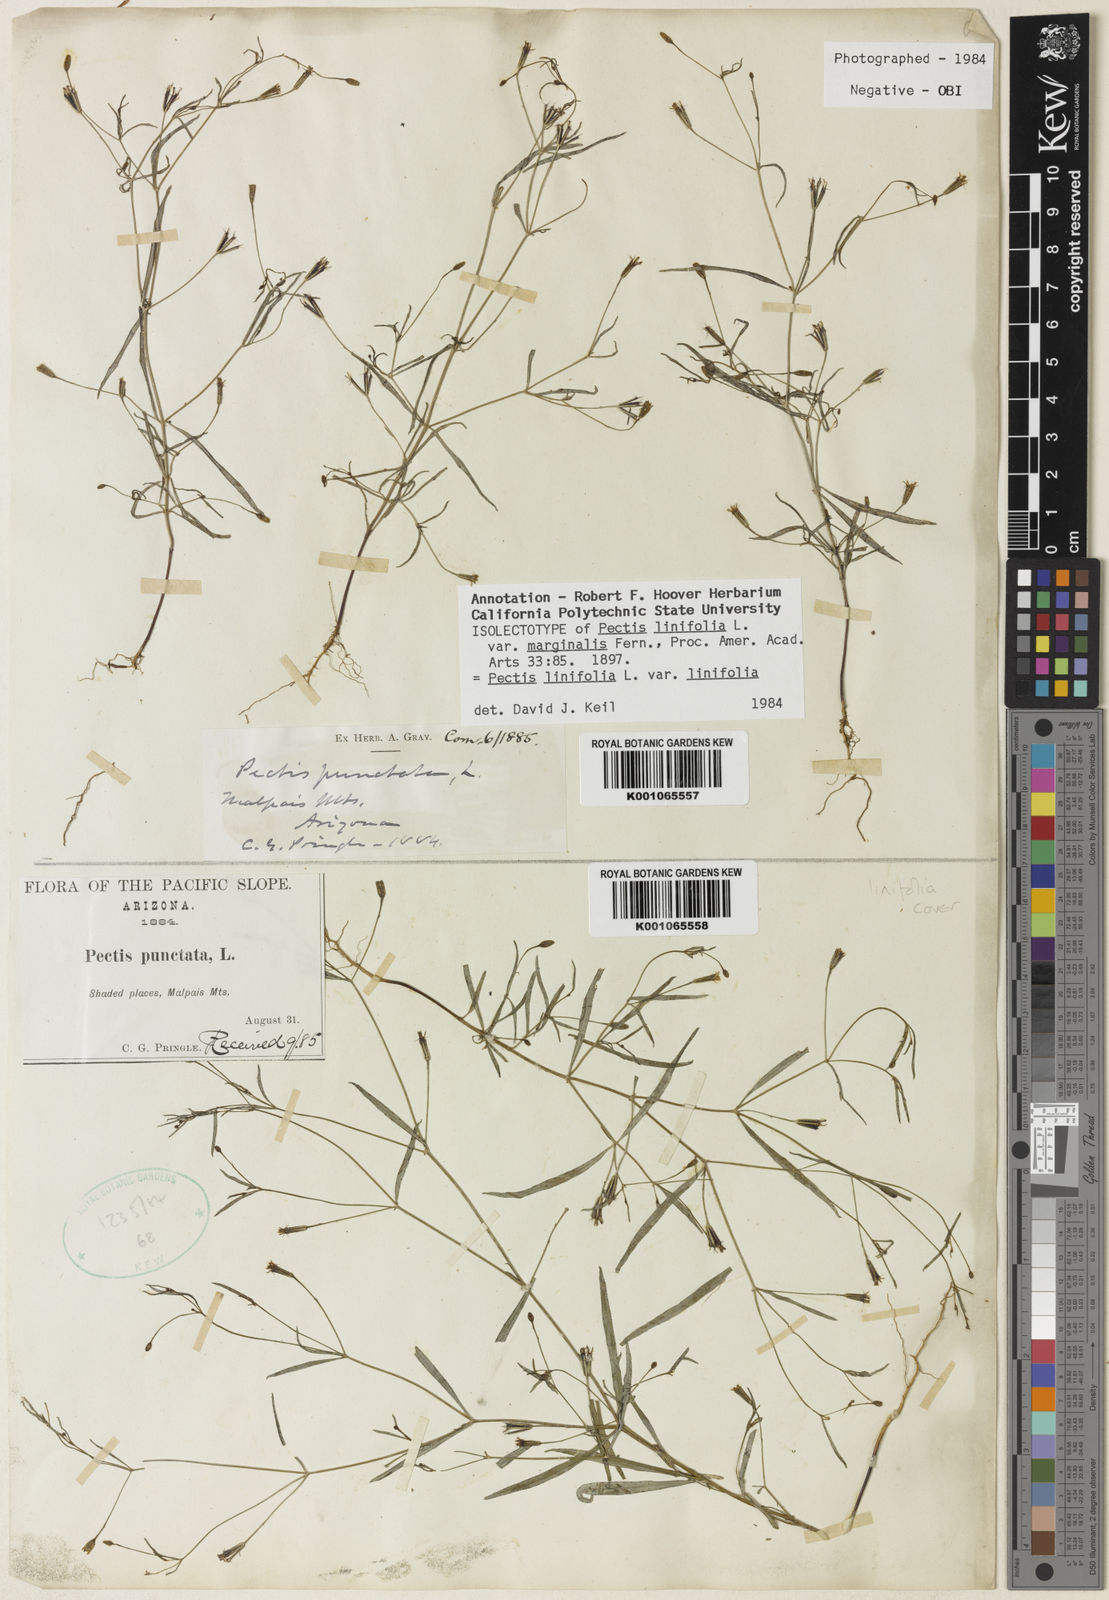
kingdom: Plantae
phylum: Tracheophyta
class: Magnoliopsida
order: Asterales
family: Asteraceae
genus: Pectis
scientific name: Pectis linifolia
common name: Romero macho
